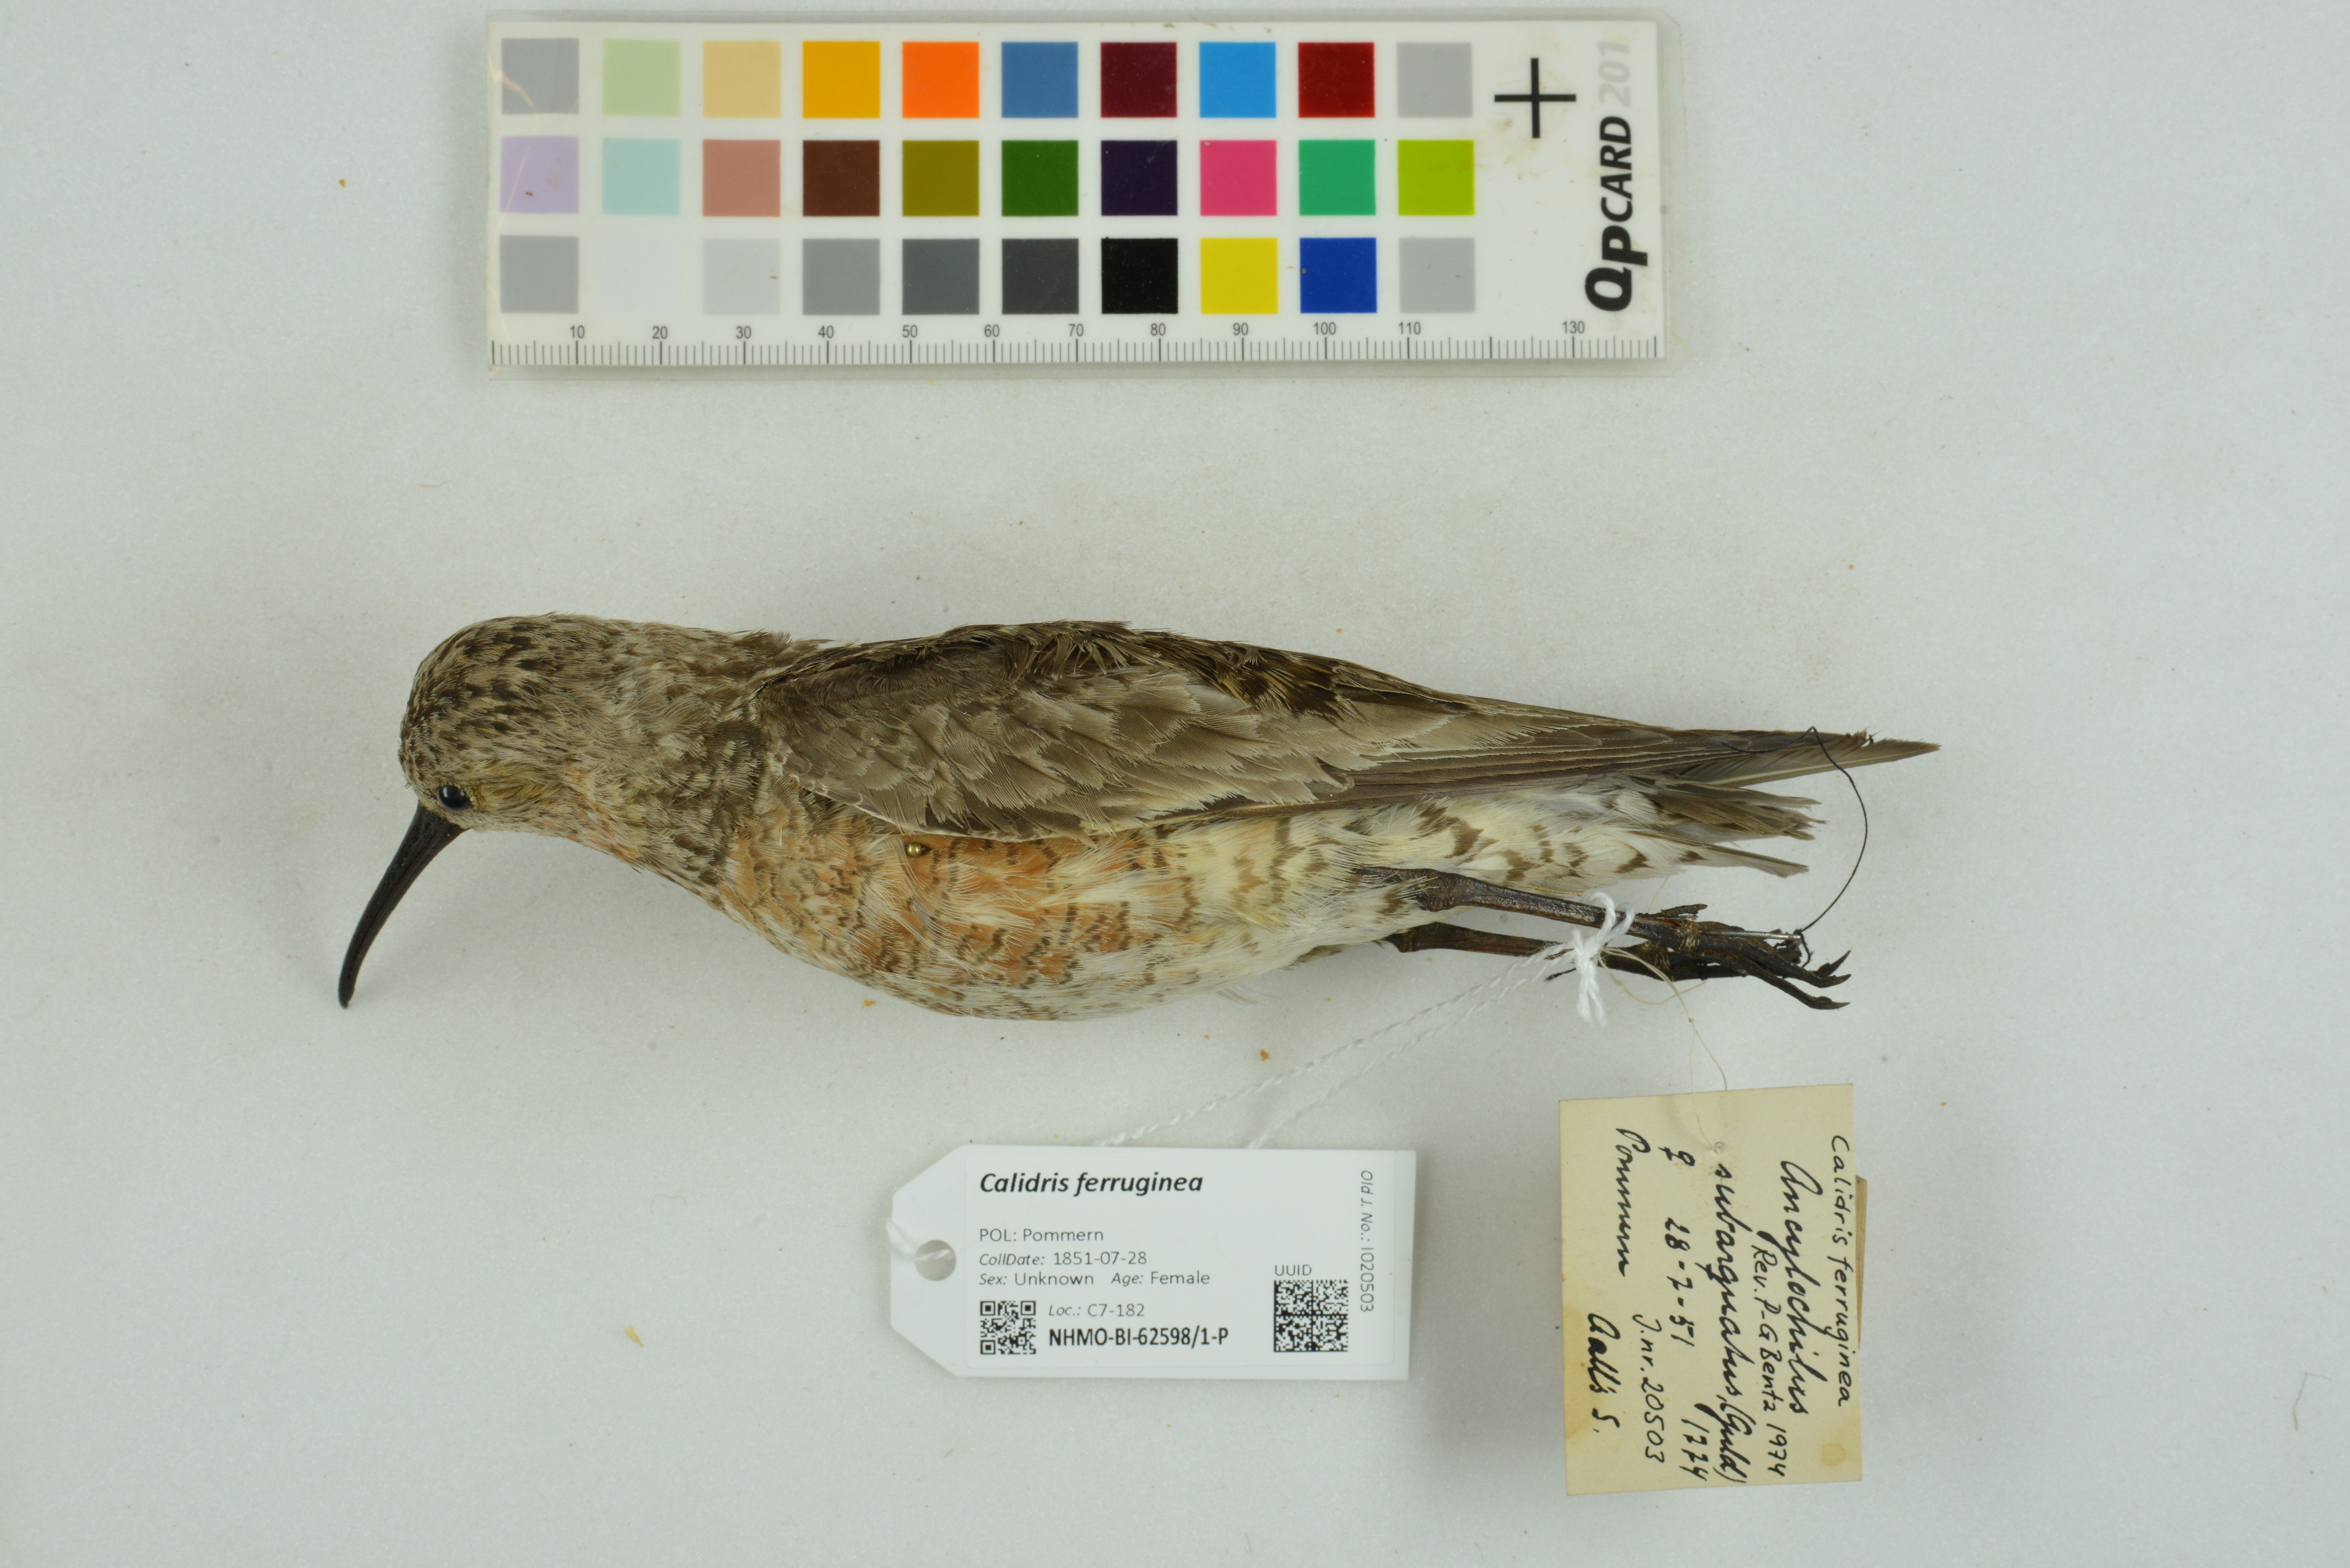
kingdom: Animalia
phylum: Chordata
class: Aves
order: Charadriiformes
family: Scolopacidae
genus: Calidris
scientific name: Calidris ferruginea
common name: Curlew sandpiper
